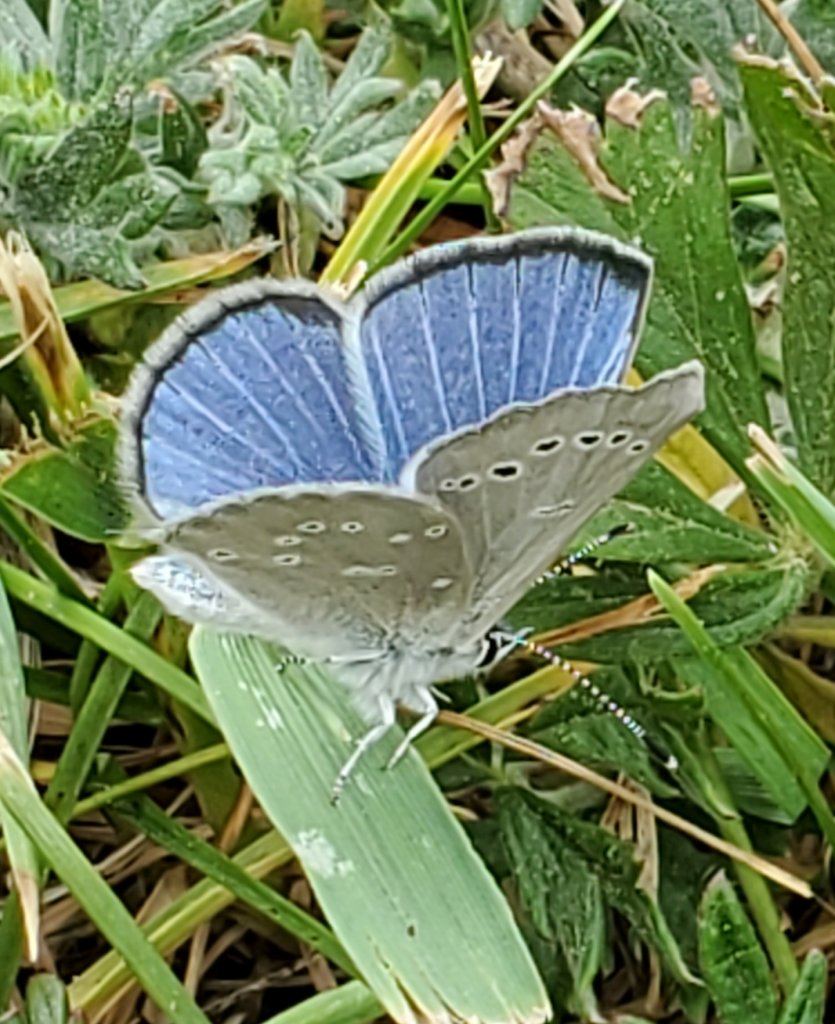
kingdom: Animalia
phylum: Arthropoda
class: Insecta
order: Lepidoptera
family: Lycaenidae
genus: Glaucopsyche
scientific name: Glaucopsyche lygdamus
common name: Silvery Blue
